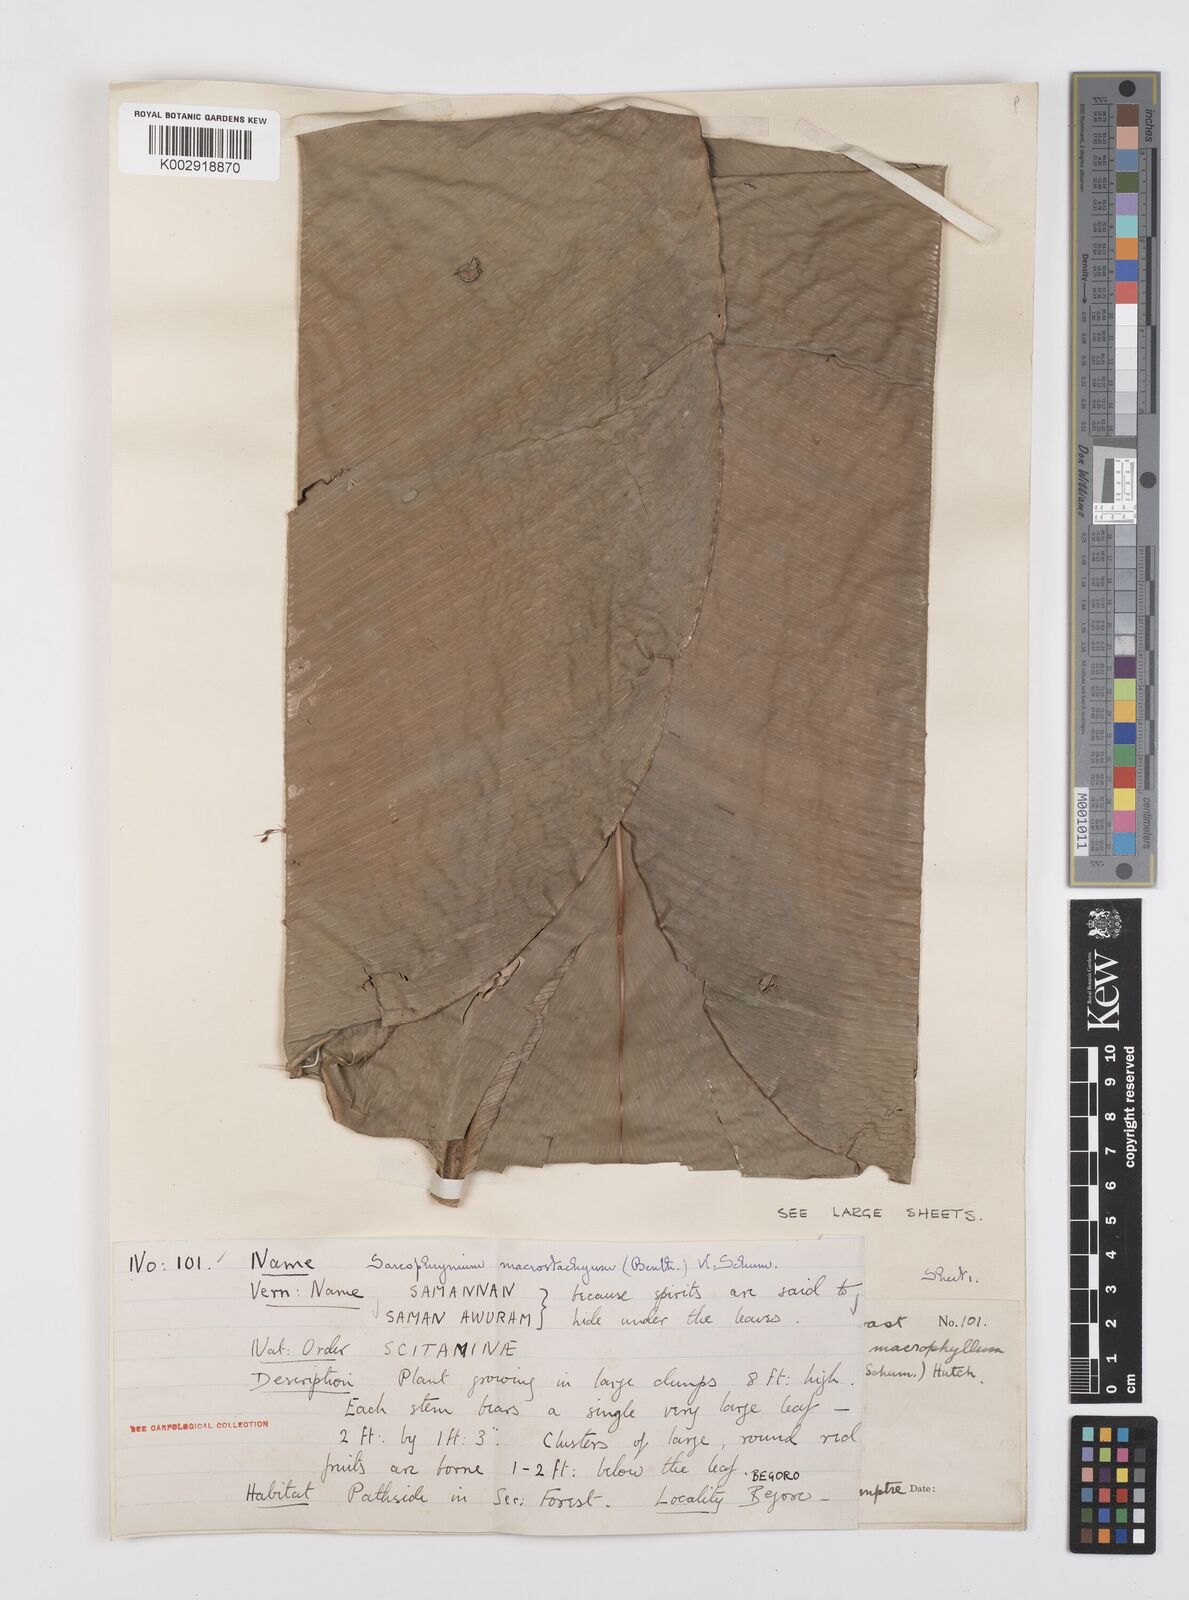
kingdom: Plantae
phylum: Tracheophyta
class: Liliopsida
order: Zingiberales
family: Marantaceae
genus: Megaphrynium
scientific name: Megaphrynium macrostachyum
